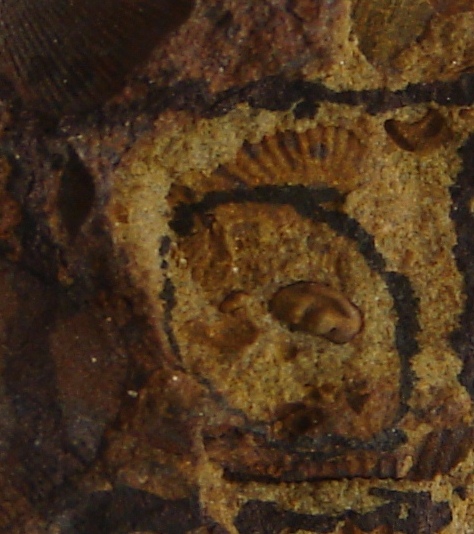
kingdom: Animalia
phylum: Arthropoda
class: Ostracoda
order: Palaeocopida
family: Kloedeniidae
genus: Carinokloedenia
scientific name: Carinokloedenia
